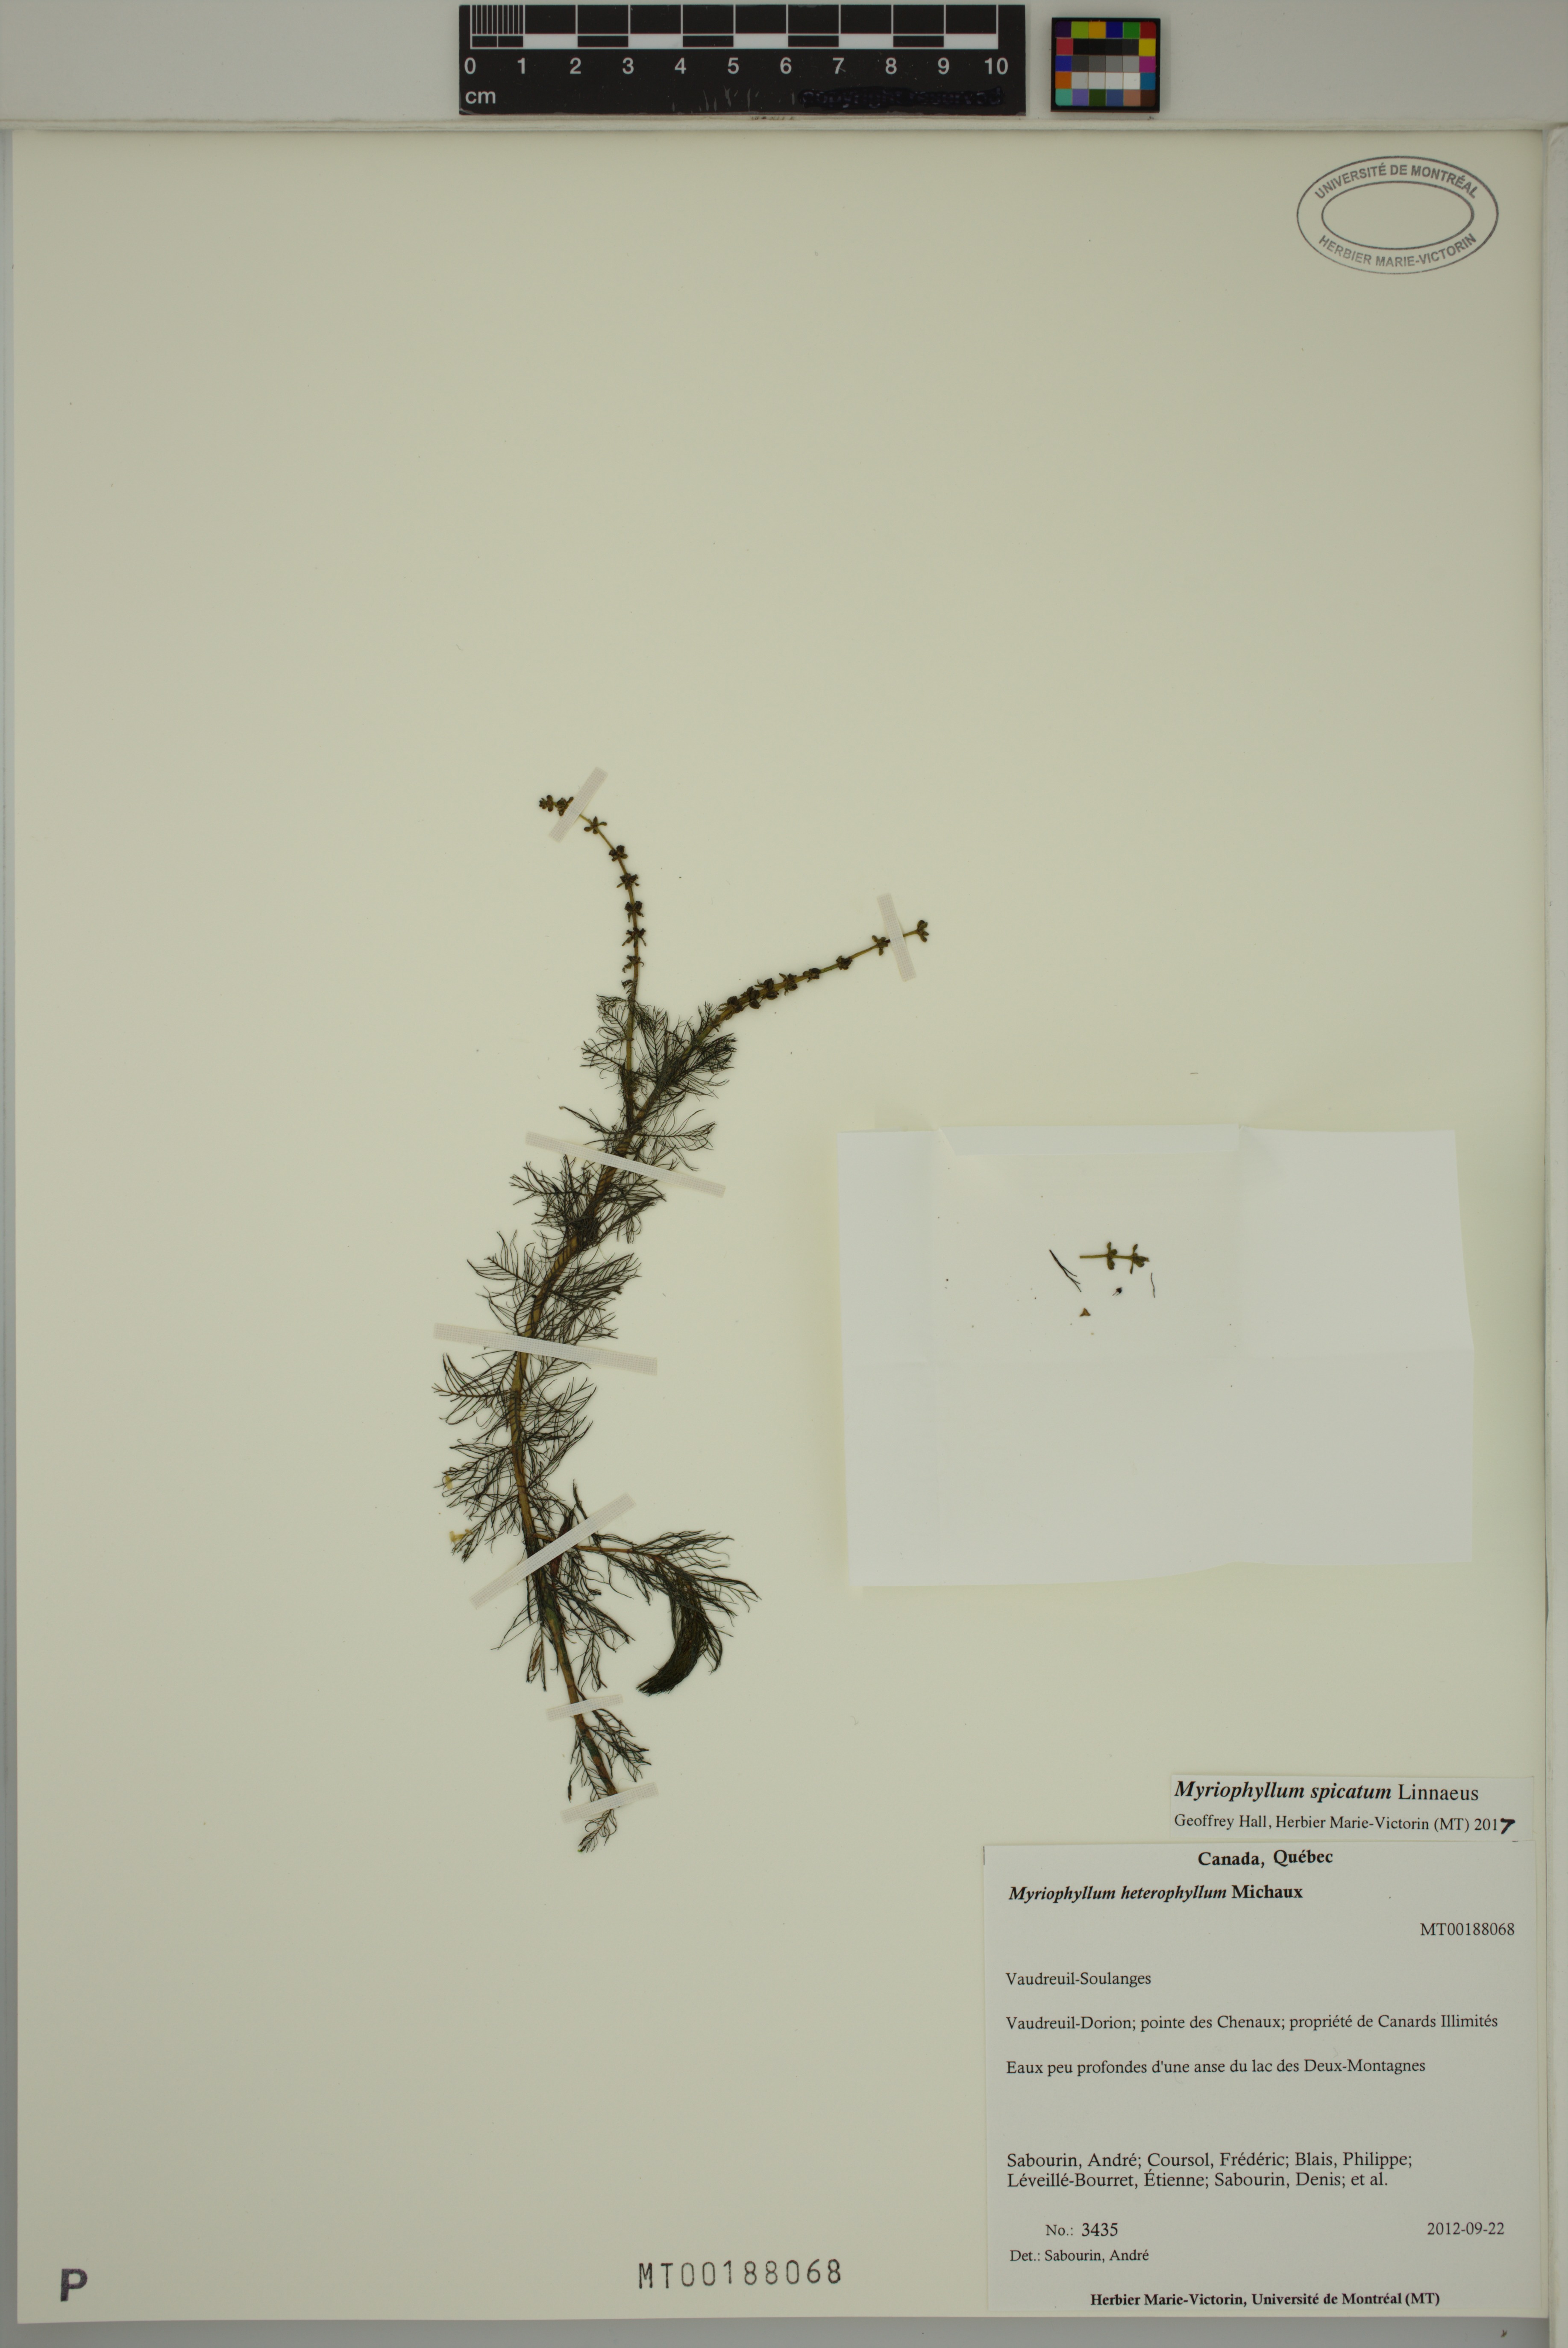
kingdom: Plantae
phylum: Tracheophyta
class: Magnoliopsida
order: Saxifragales
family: Haloragaceae
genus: Myriophyllum
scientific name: Myriophyllum spicatum
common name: Spiked water-milfoil
